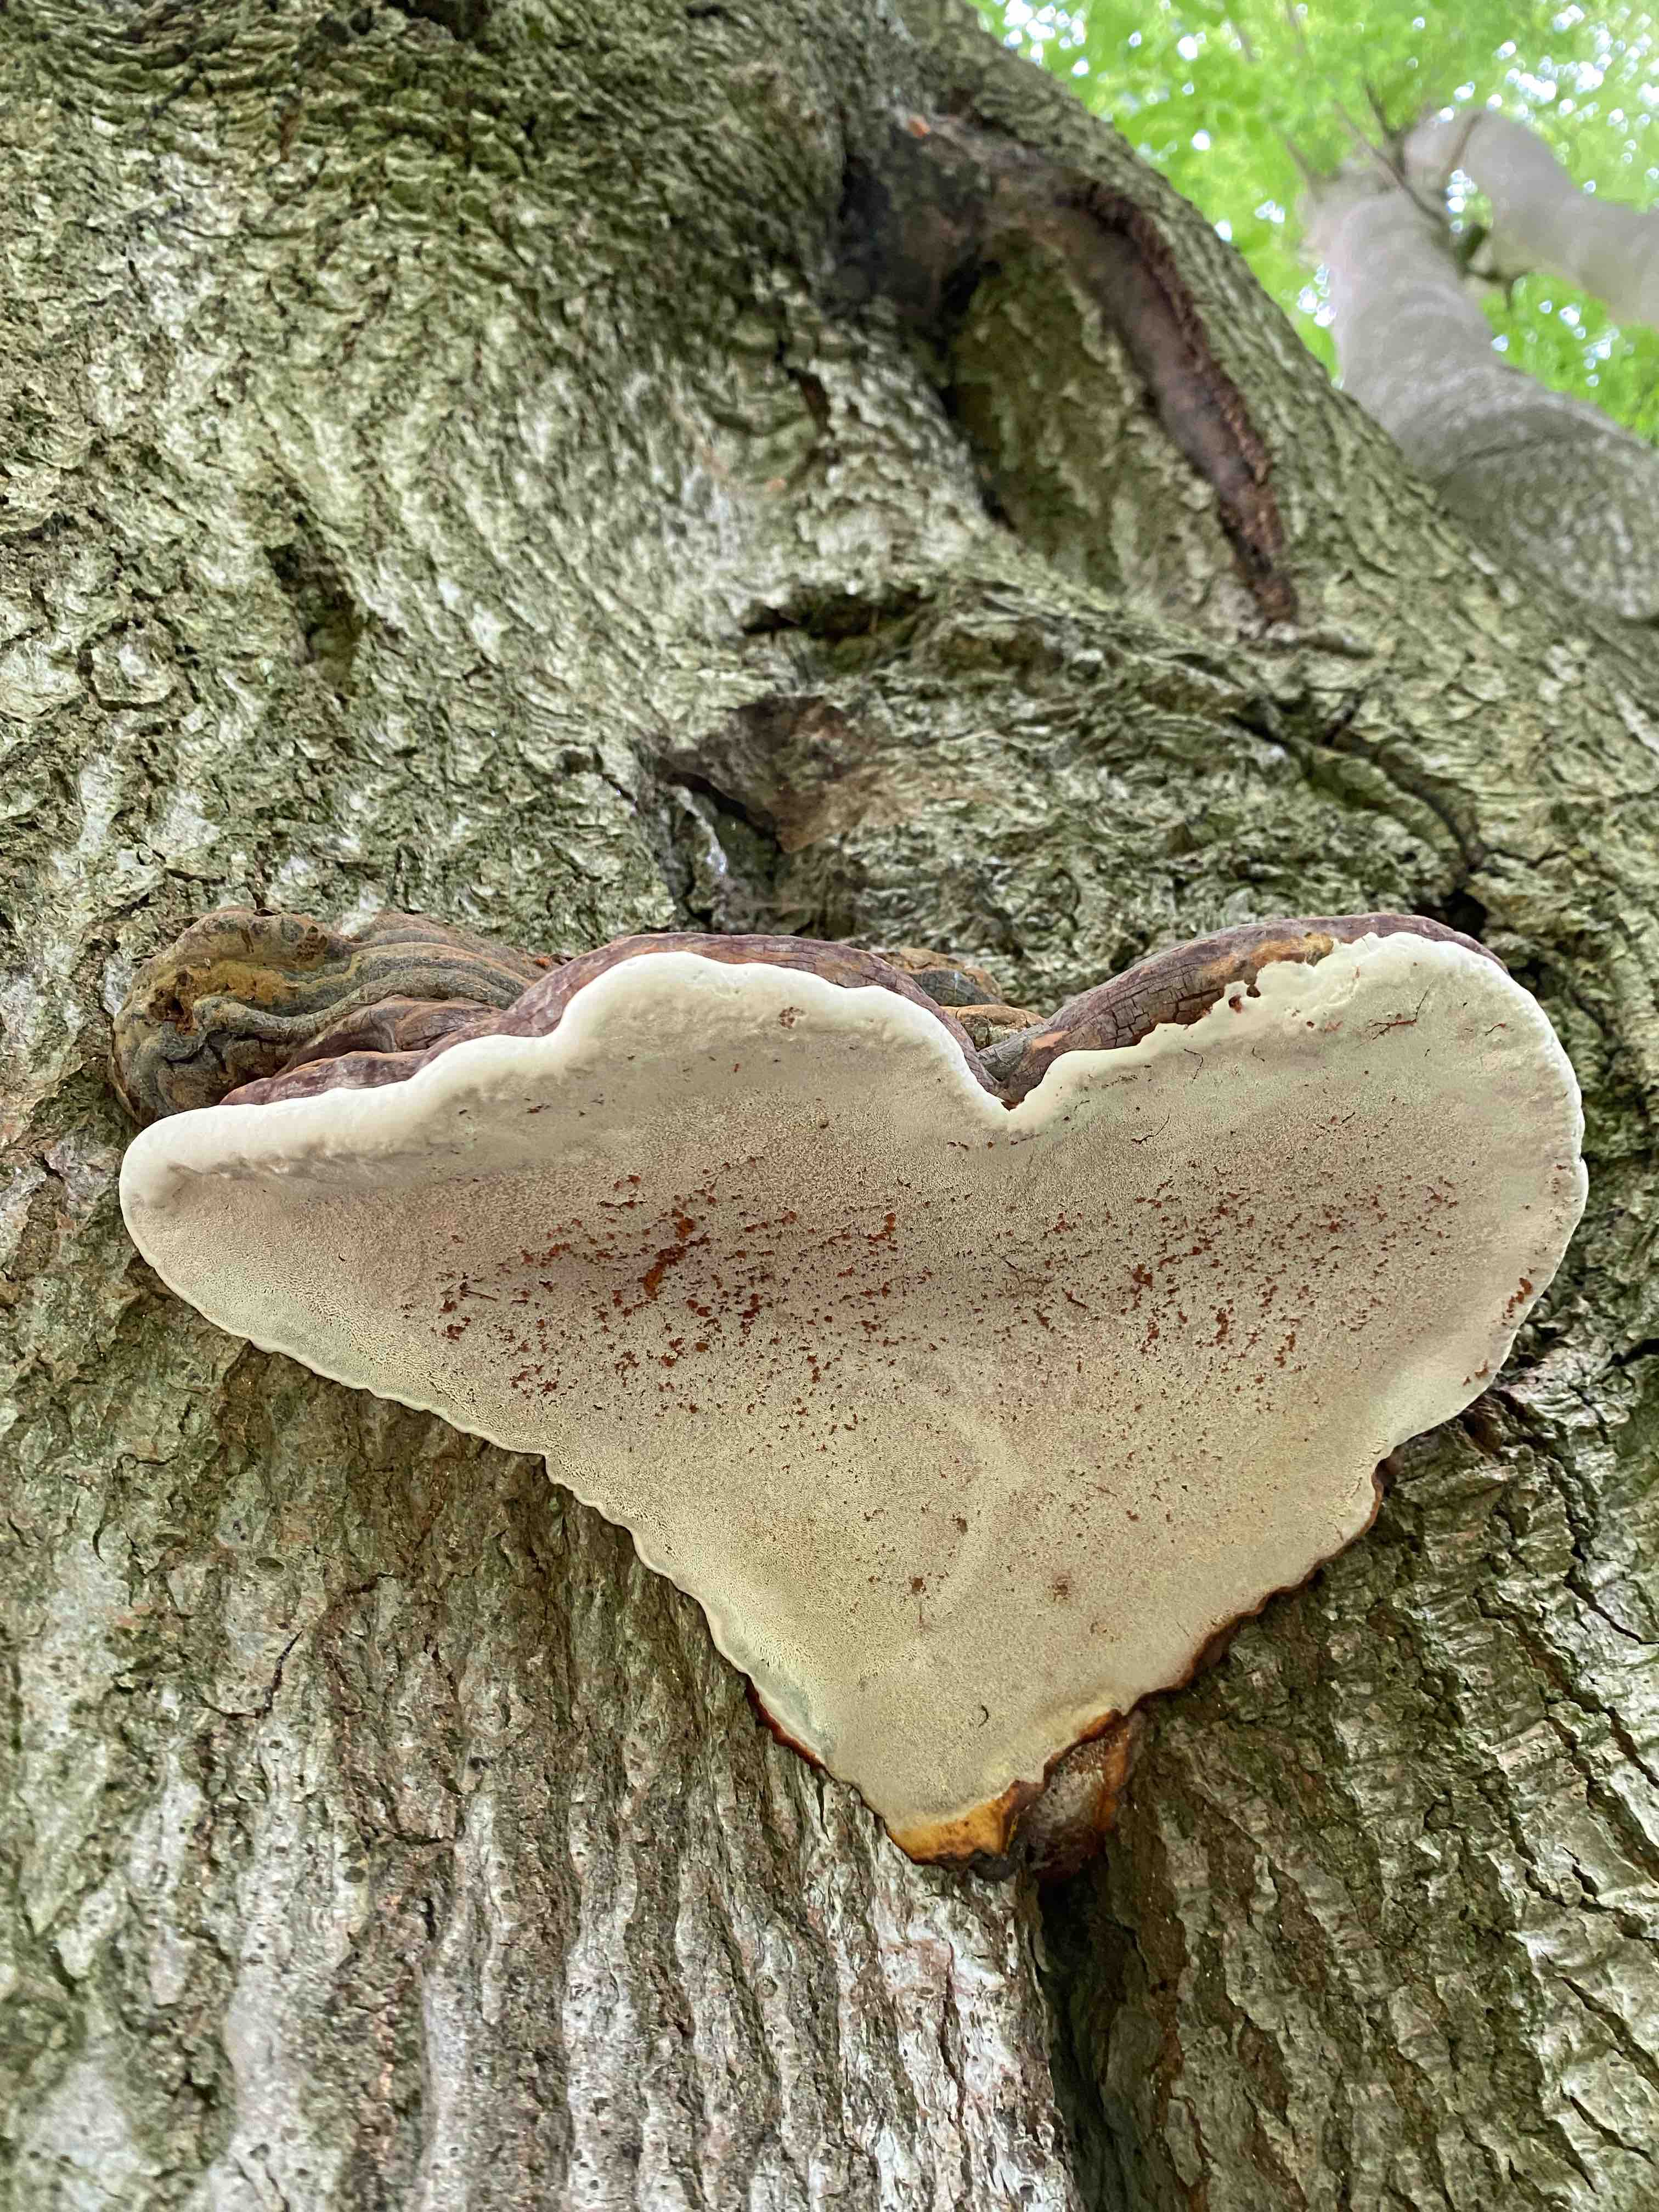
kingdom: Fungi
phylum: Basidiomycota
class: Agaricomycetes
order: Polyporales
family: Polyporaceae
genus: Ganoderma
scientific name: Ganoderma pfeifferi
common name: kobberrød lakporesvamp
